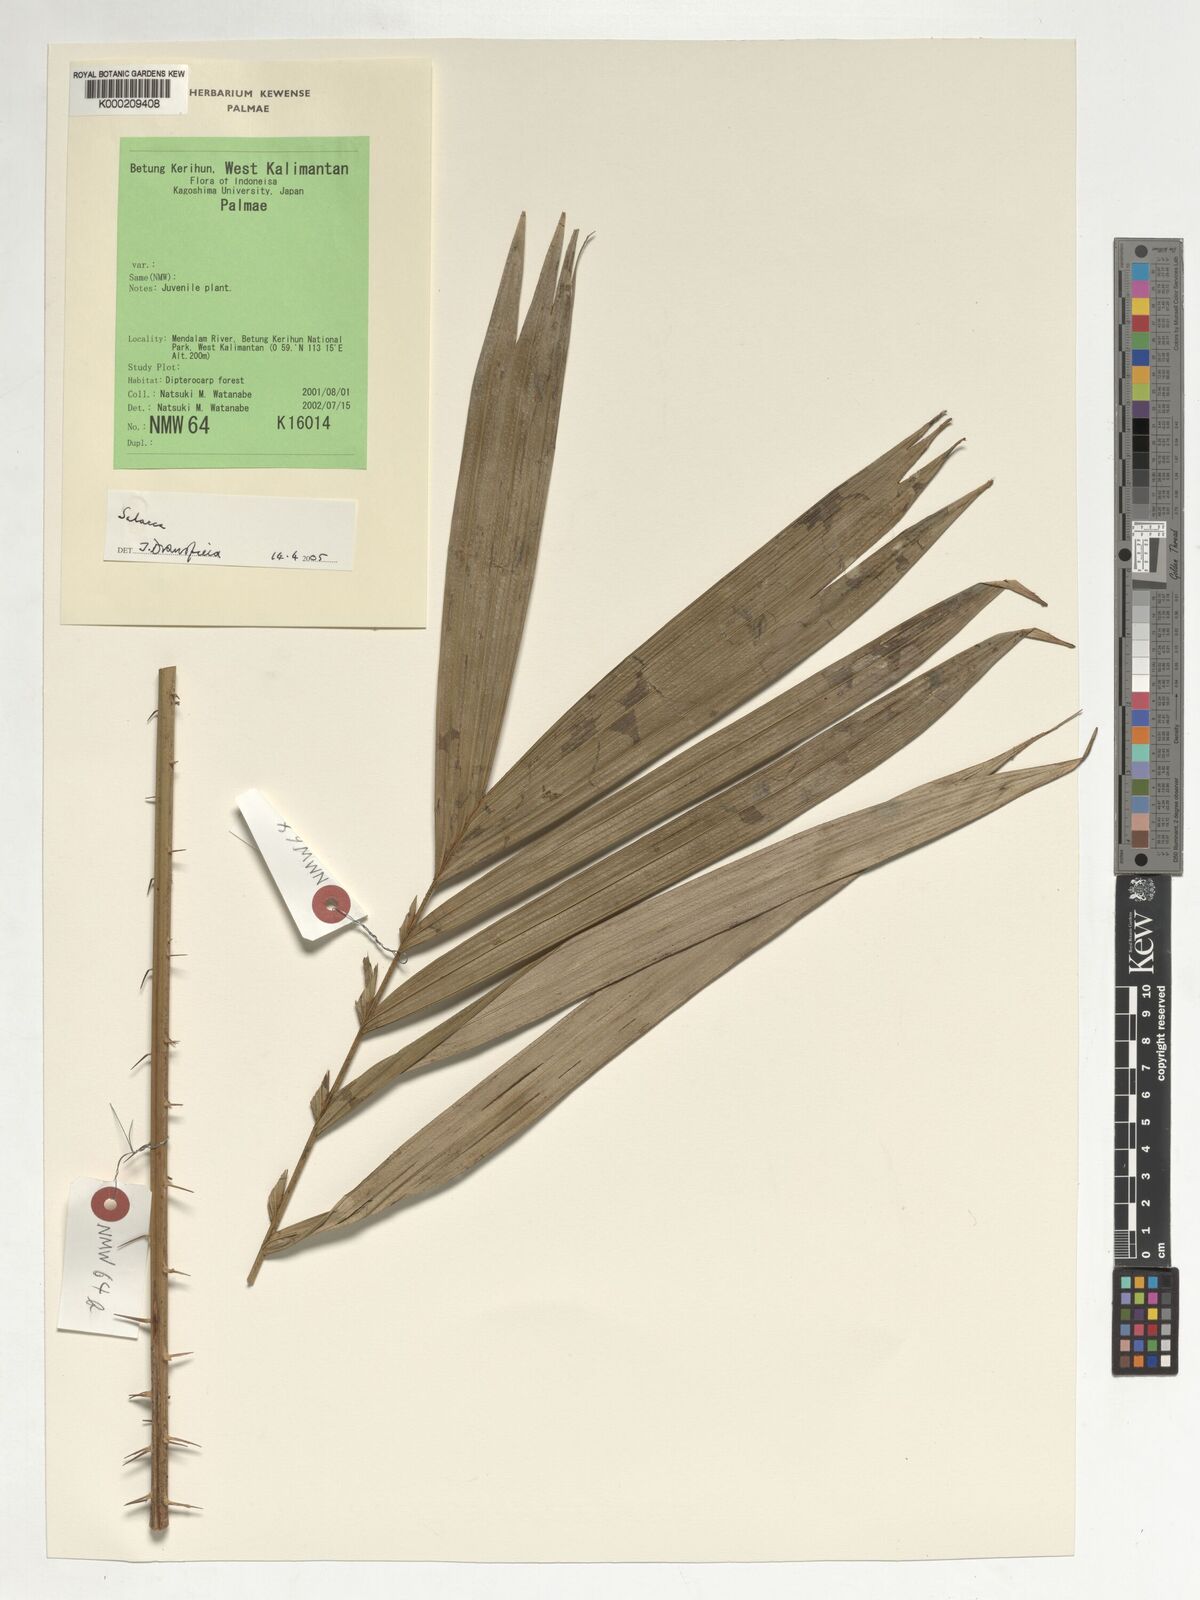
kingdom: Plantae
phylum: Tracheophyta
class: Liliopsida
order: Arecales
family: Arecaceae
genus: Salacca
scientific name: Salacca
